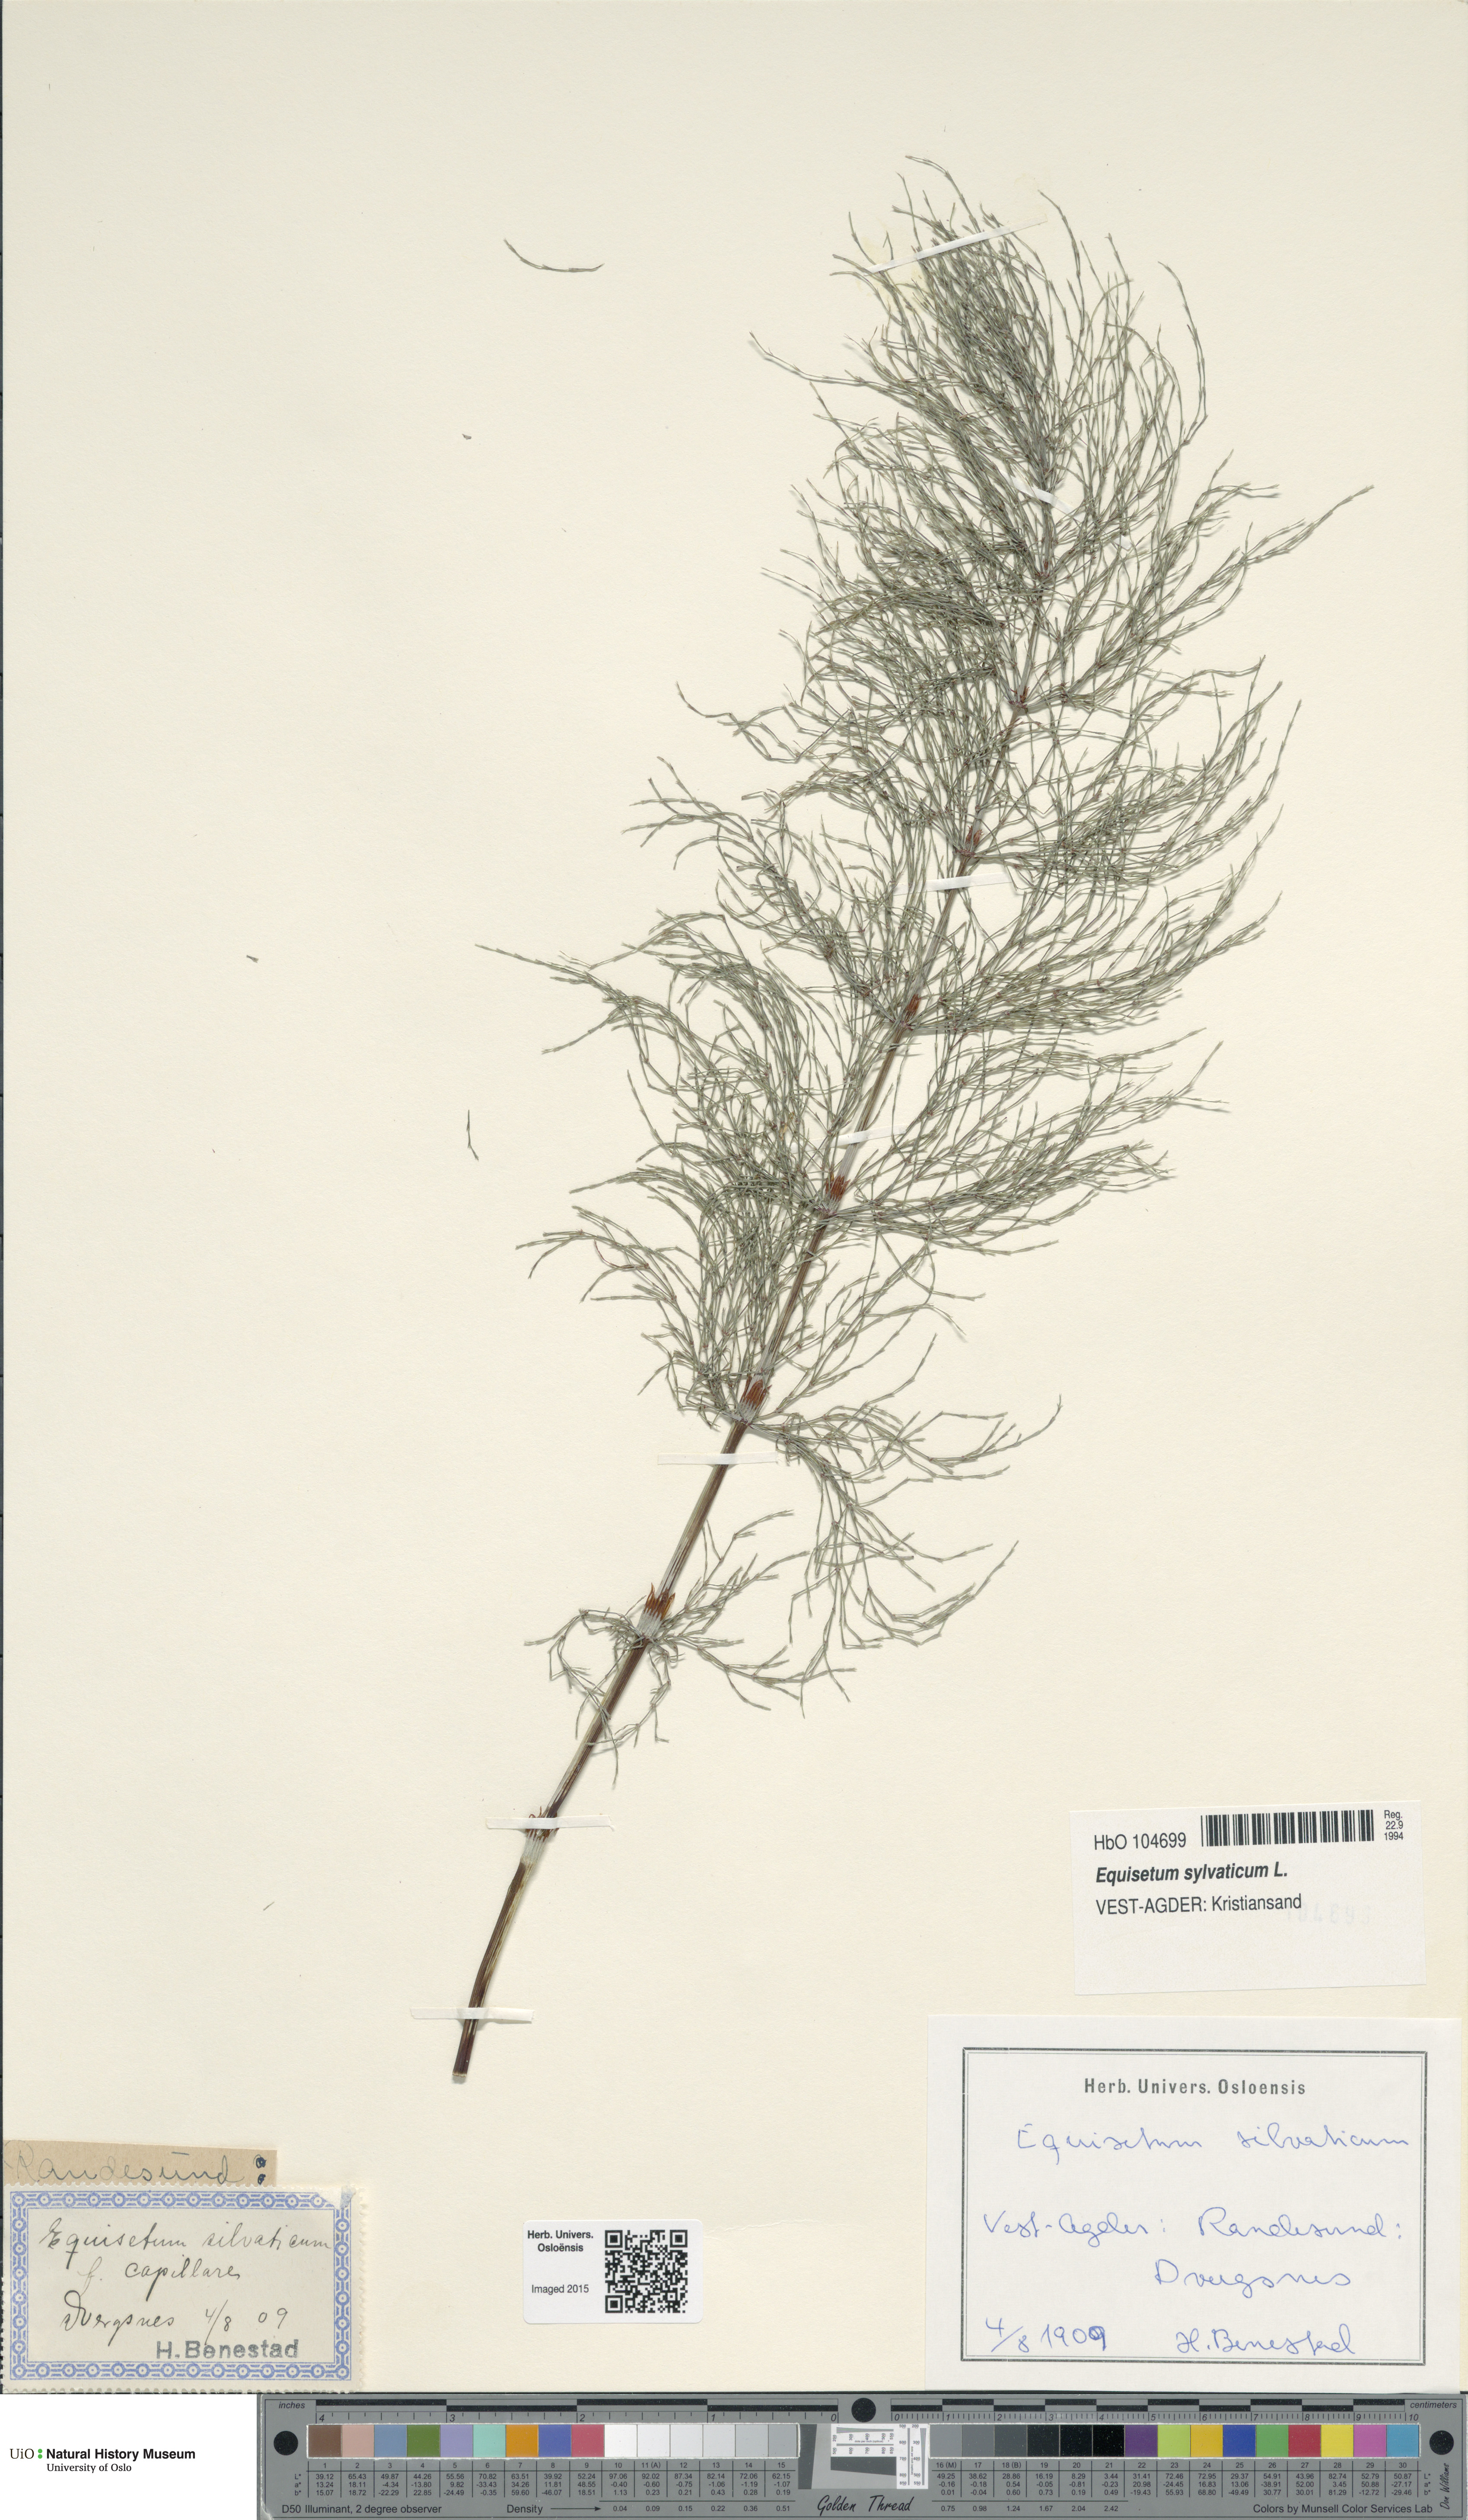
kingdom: Plantae
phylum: Tracheophyta
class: Polypodiopsida
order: Equisetales
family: Equisetaceae
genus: Equisetum
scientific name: Equisetum sylvaticum
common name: Wood horsetail
